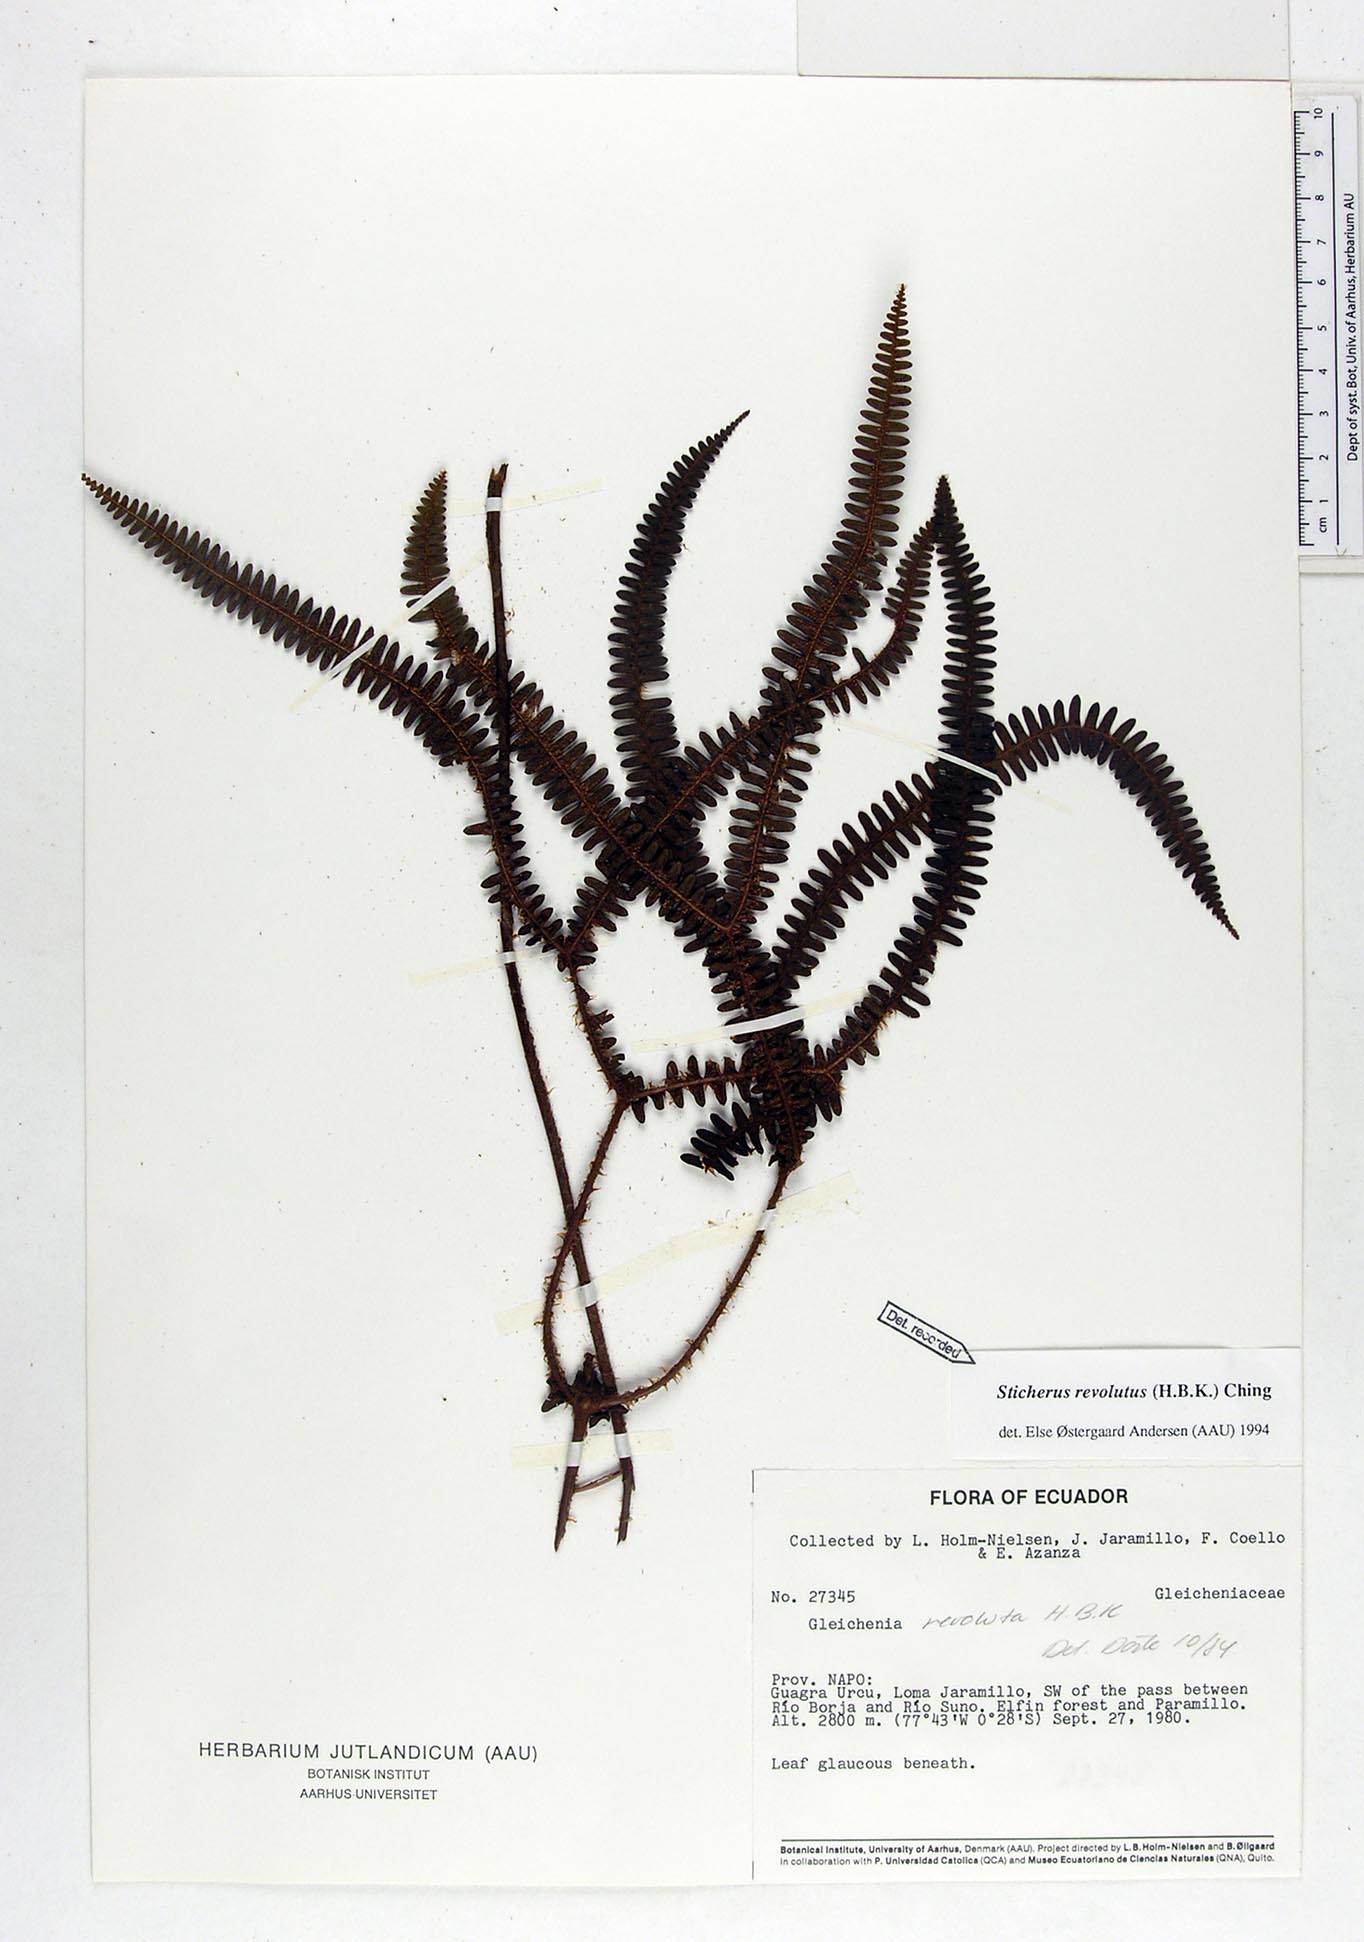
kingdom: Plantae
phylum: Tracheophyta
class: Polypodiopsida
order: Gleicheniales
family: Gleicheniaceae
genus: Sticherus
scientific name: Sticherus revolutus
